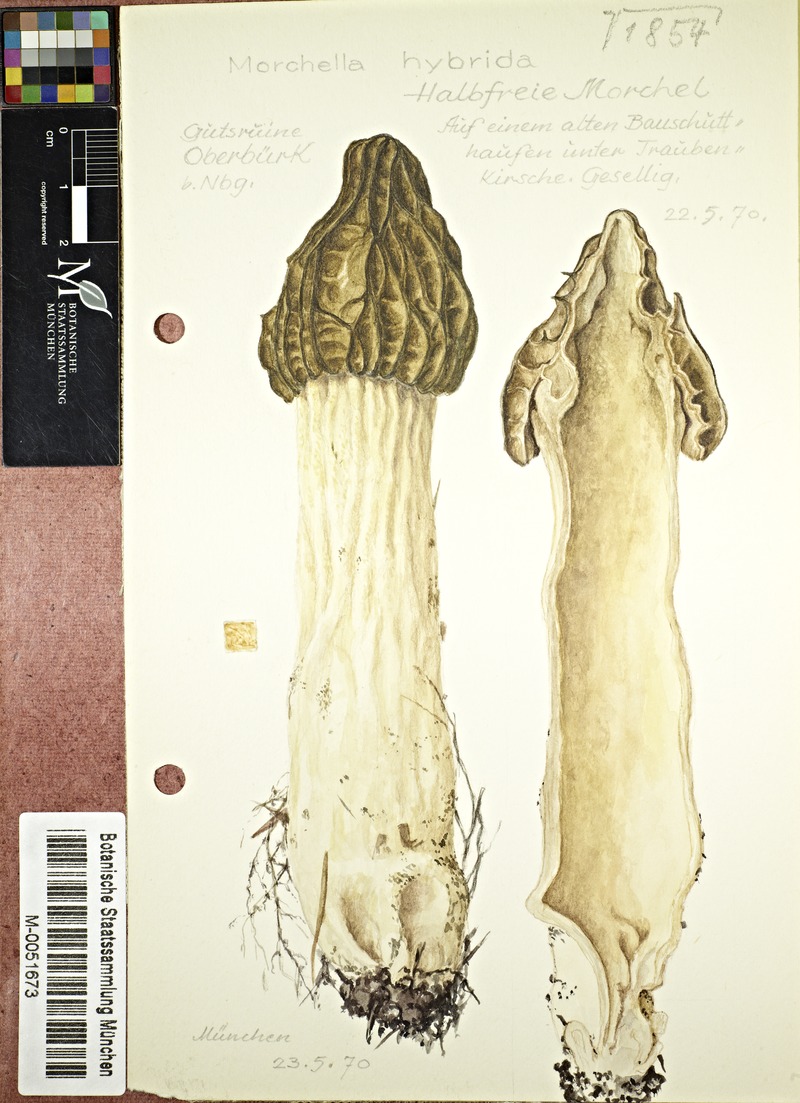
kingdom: Fungi
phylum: Ascomycota
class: Pezizomycetes
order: Pezizales
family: Morchellaceae
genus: Morchella
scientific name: Morchella semilibera
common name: Semifree morel
